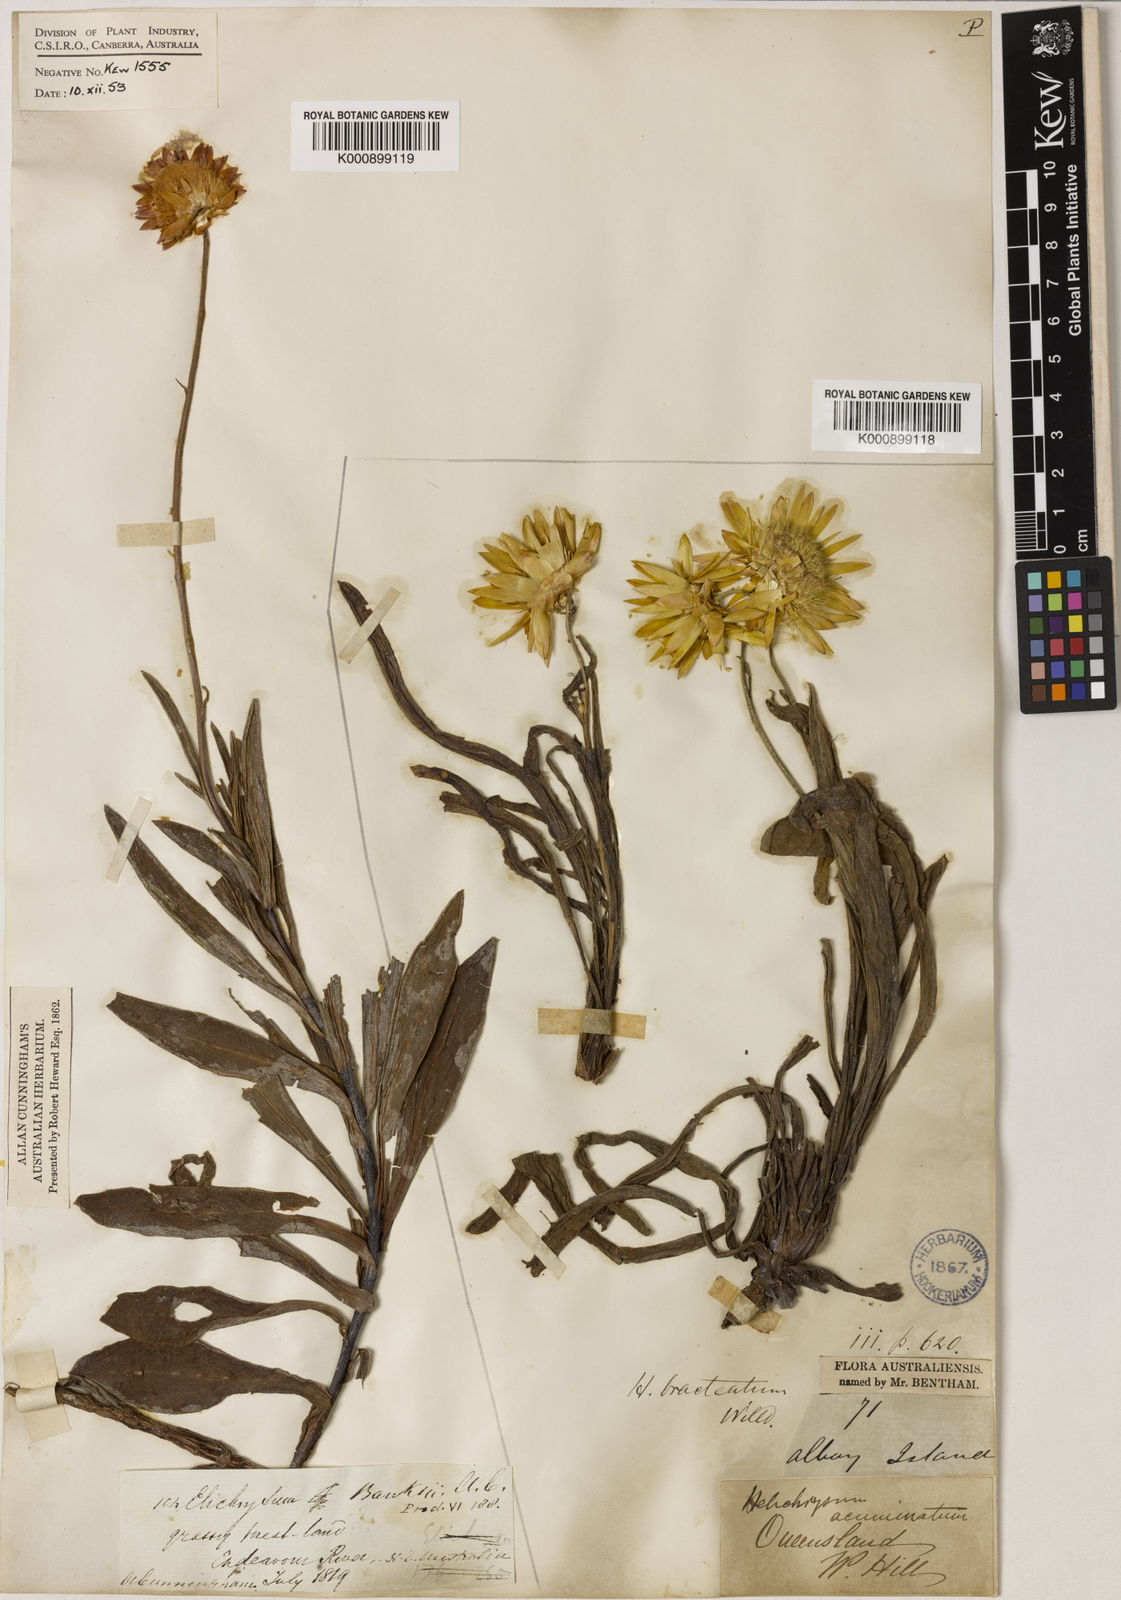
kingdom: Plantae
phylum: Tracheophyta
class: Magnoliopsida
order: Asterales
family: Asteraceae
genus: Xerochrysum
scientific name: Xerochrysum bracteatum
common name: Bracted strawflower
